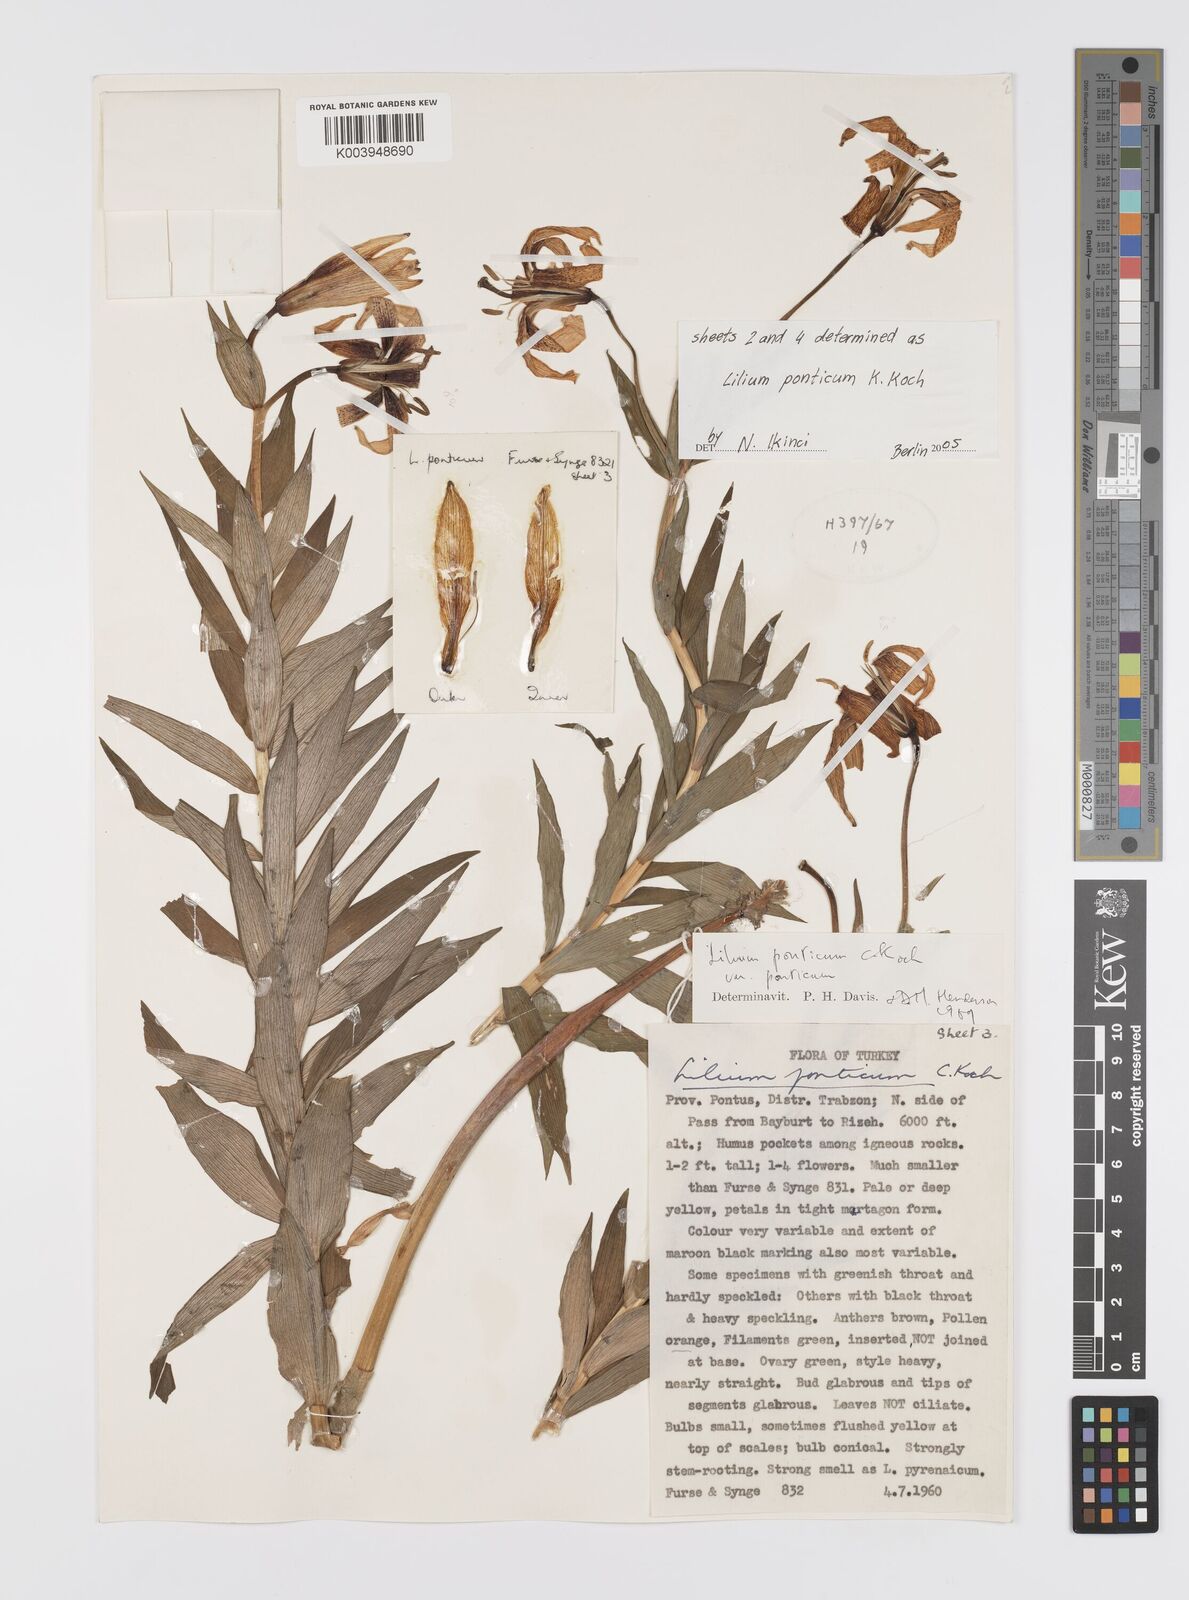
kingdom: Plantae
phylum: Tracheophyta
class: Liliopsida
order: Liliales
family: Liliaceae
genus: Lilium
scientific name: Lilium ponticum
